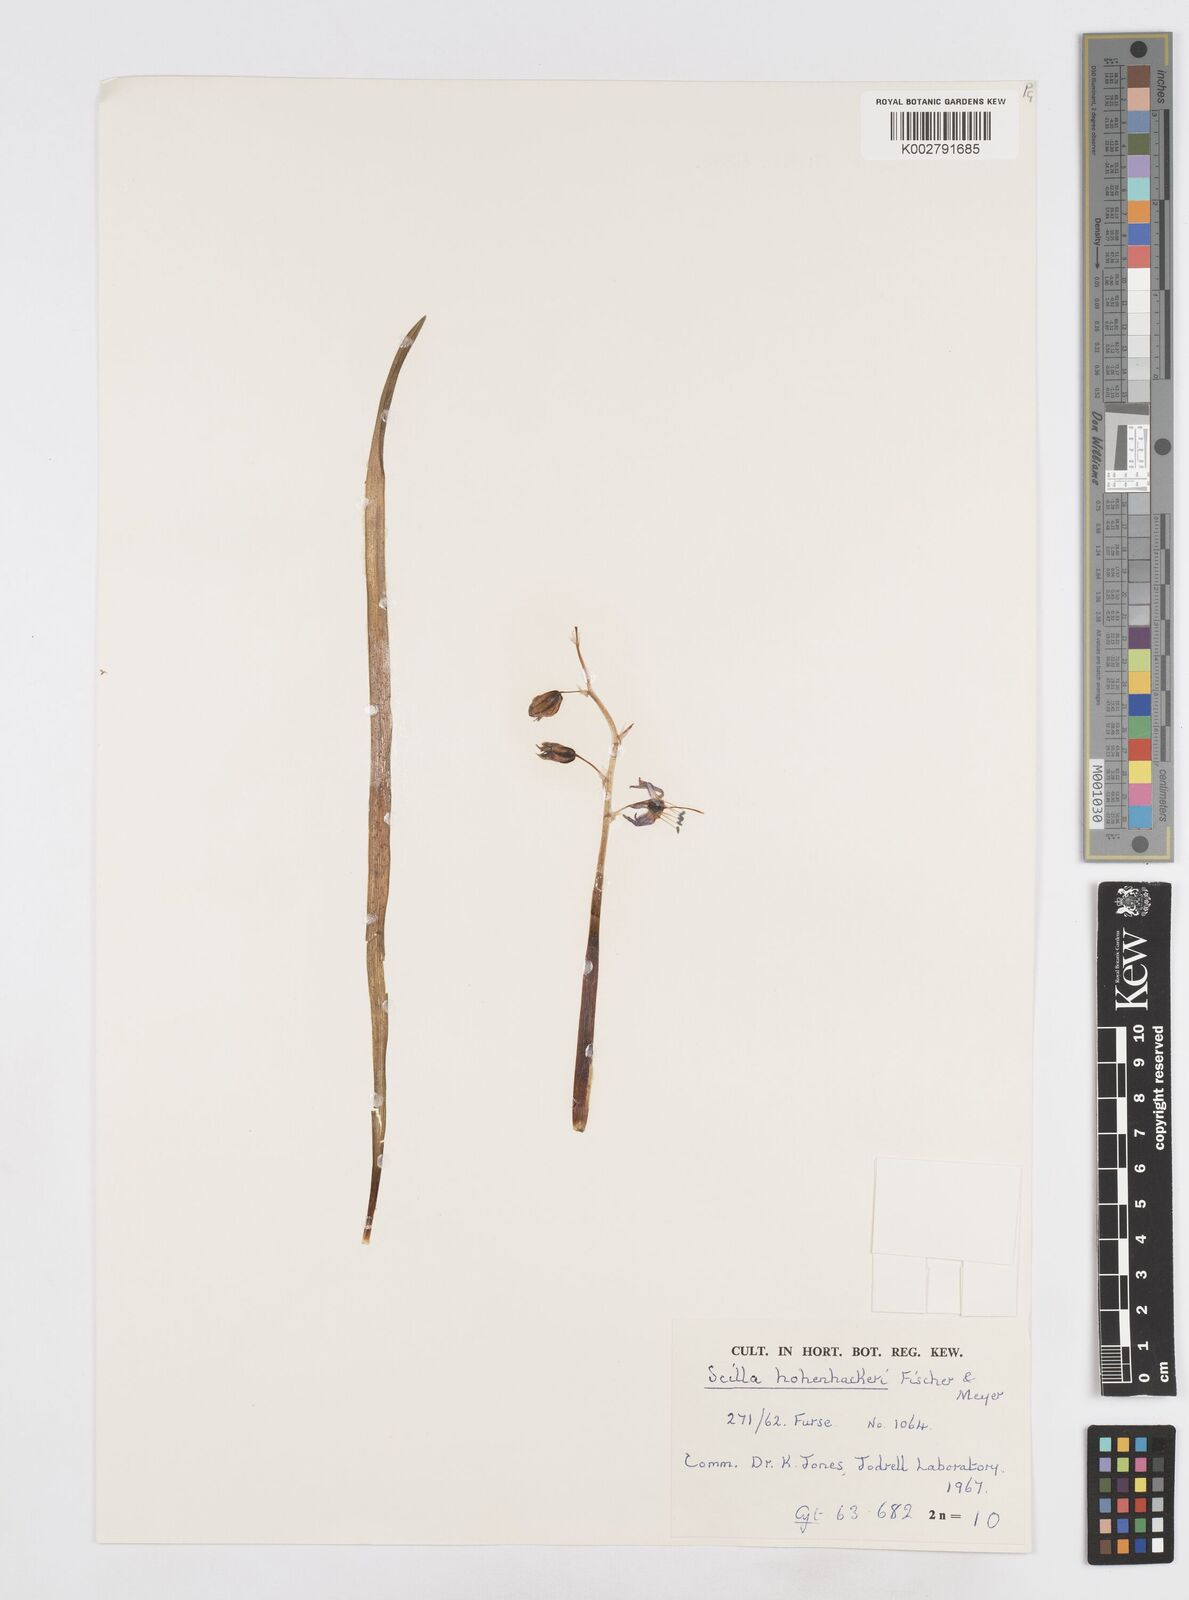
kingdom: Plantae
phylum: Tracheophyta
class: Liliopsida
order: Asparagales
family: Asparagaceae
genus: Scilla
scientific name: Scilla bifolia
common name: Alpine squill
